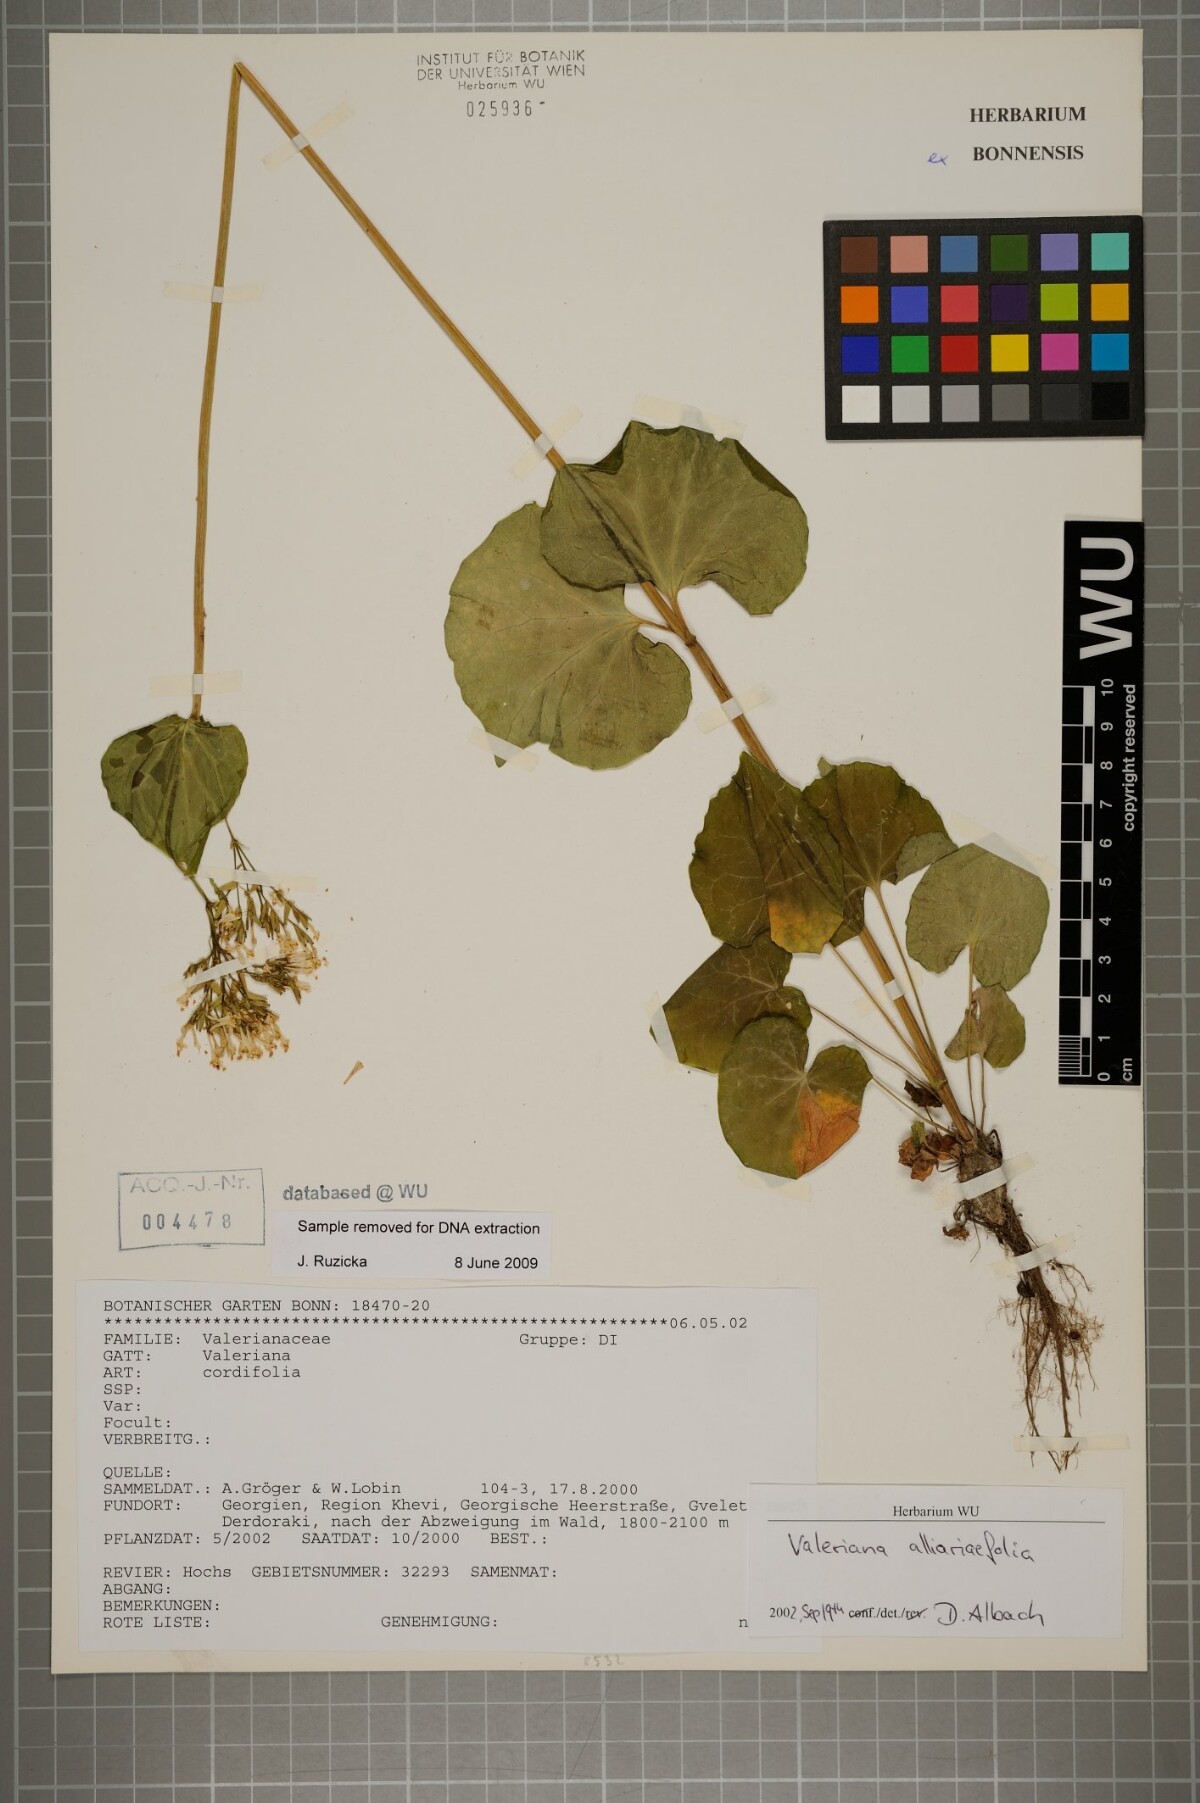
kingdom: Plantae
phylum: Tracheophyta
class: Magnoliopsida
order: Dipsacales
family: Caprifoliaceae
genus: Valeriana
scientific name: Valeriana alliariifolia
